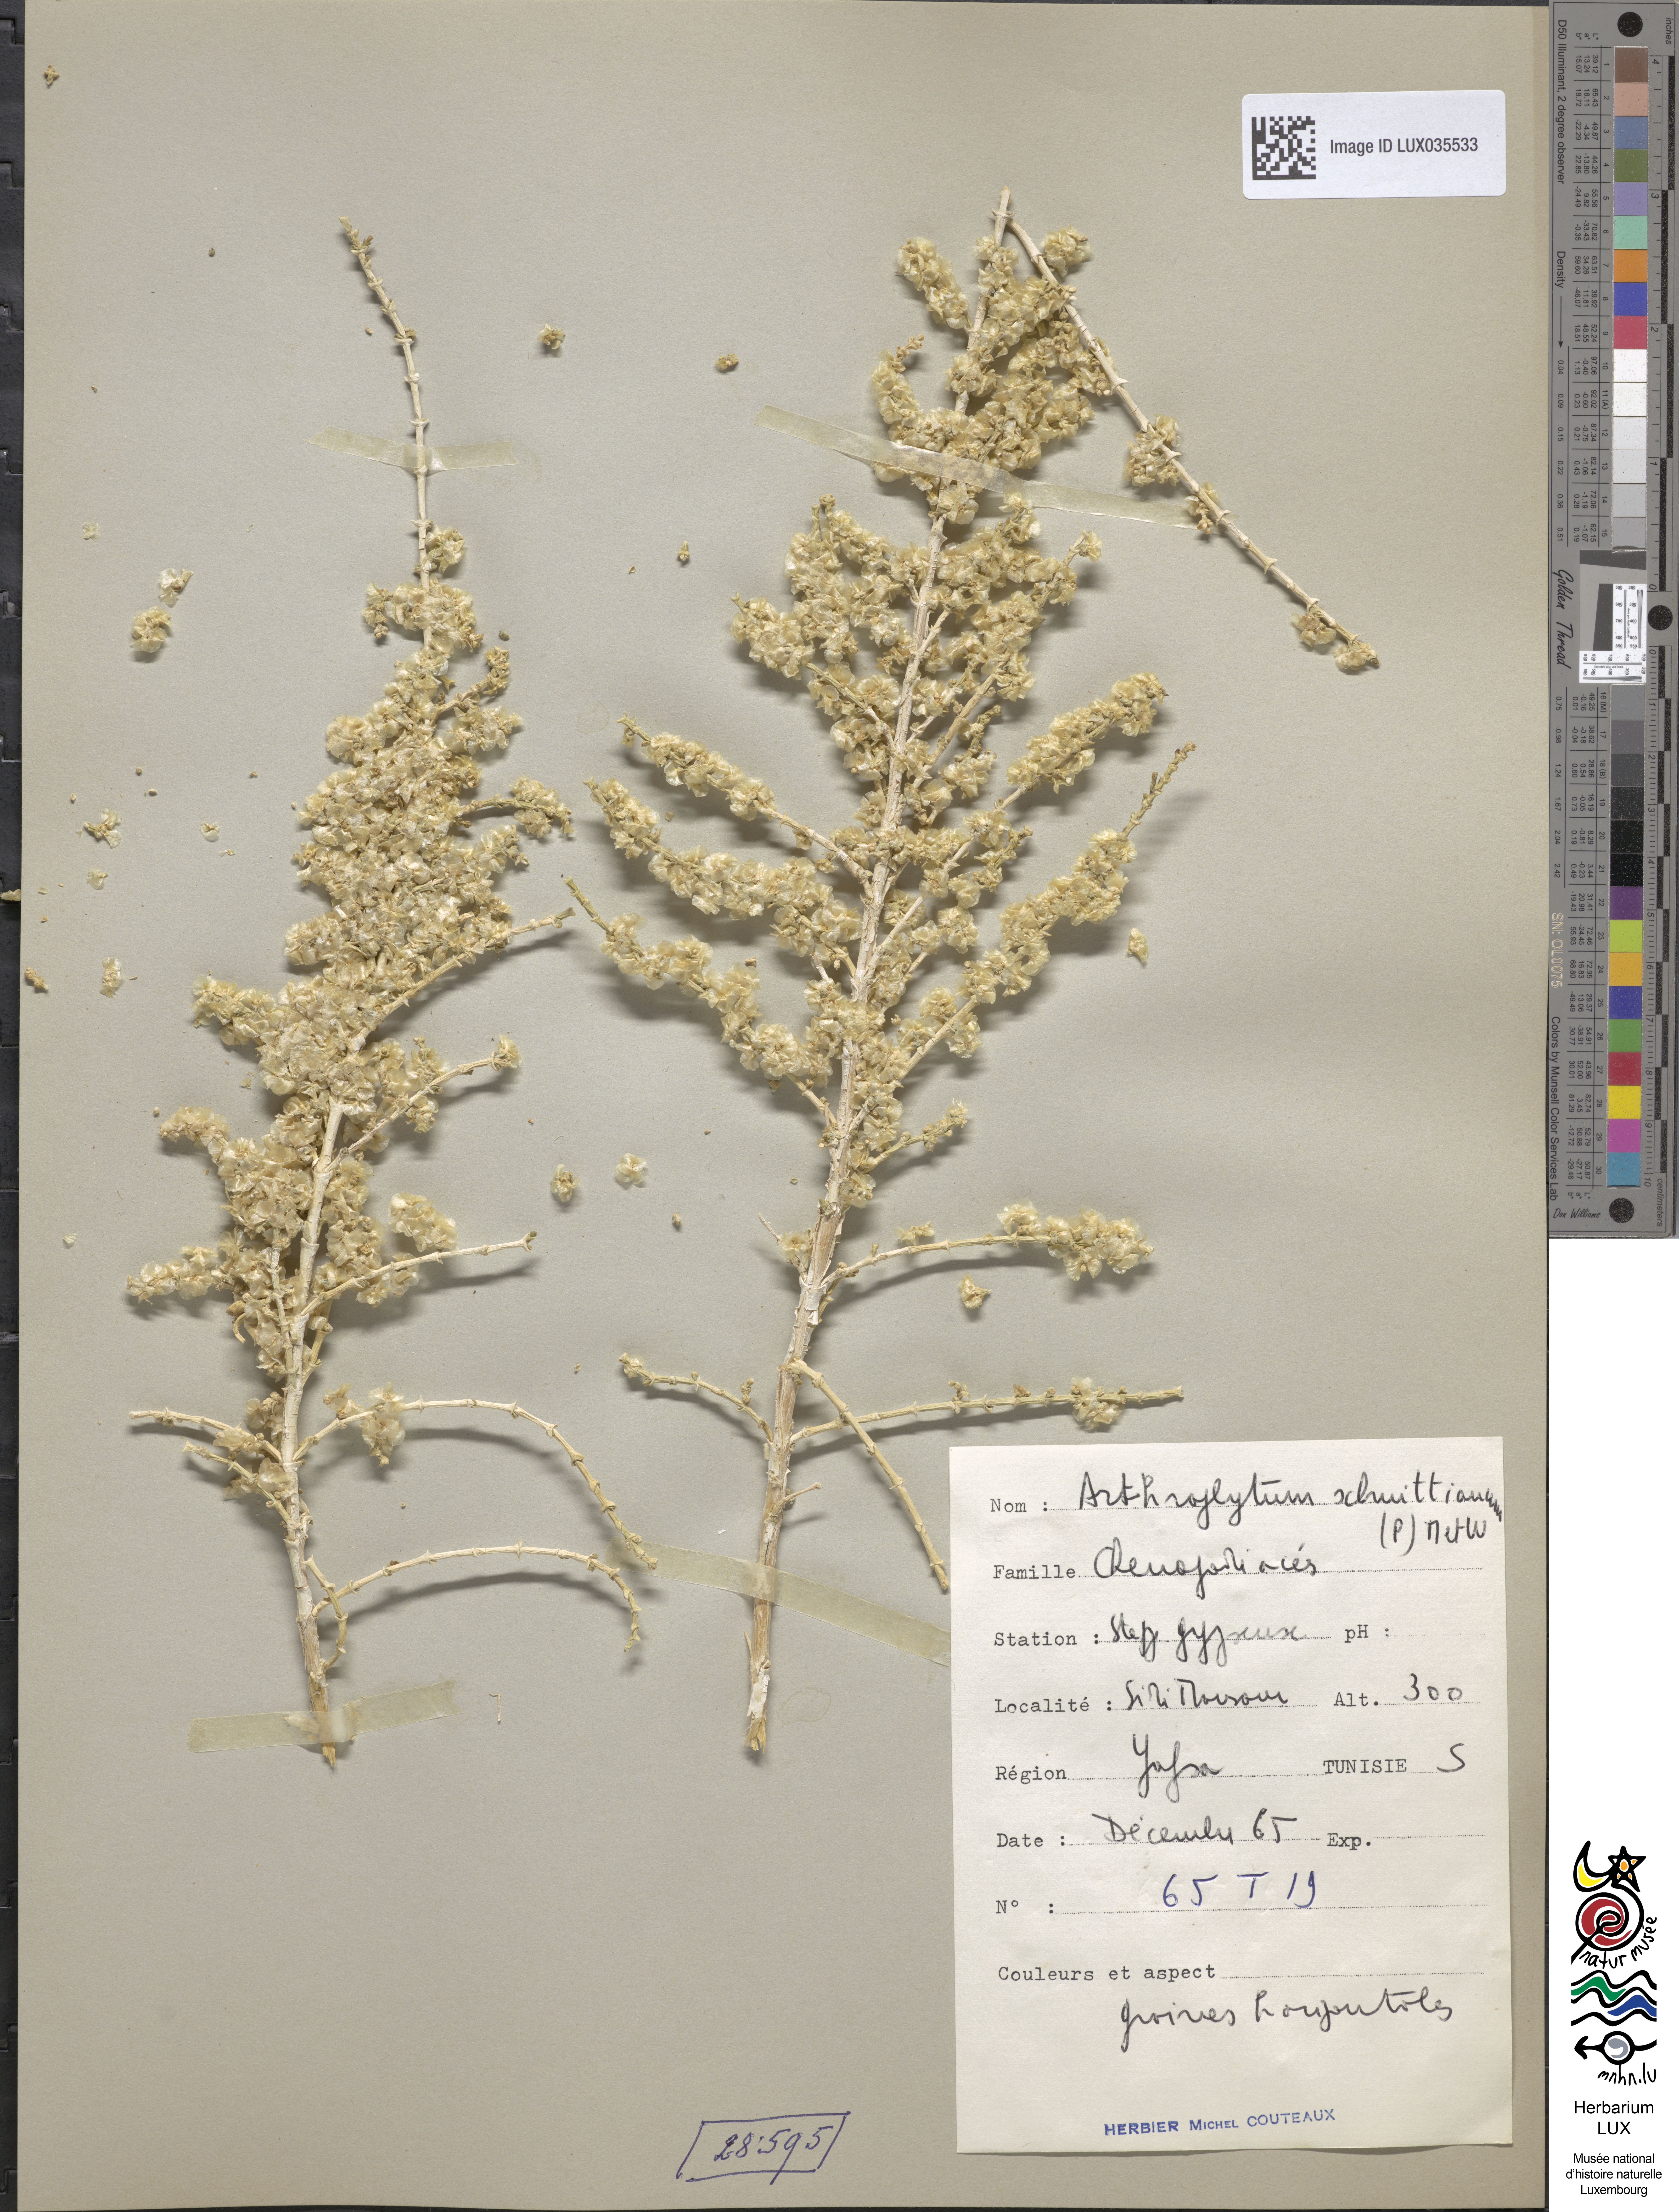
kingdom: Plantae
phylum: Tracheophyta
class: Magnoliopsida
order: Caryophyllales
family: Amaranthaceae
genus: Haloxylon
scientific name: Haloxylon schmittianum
